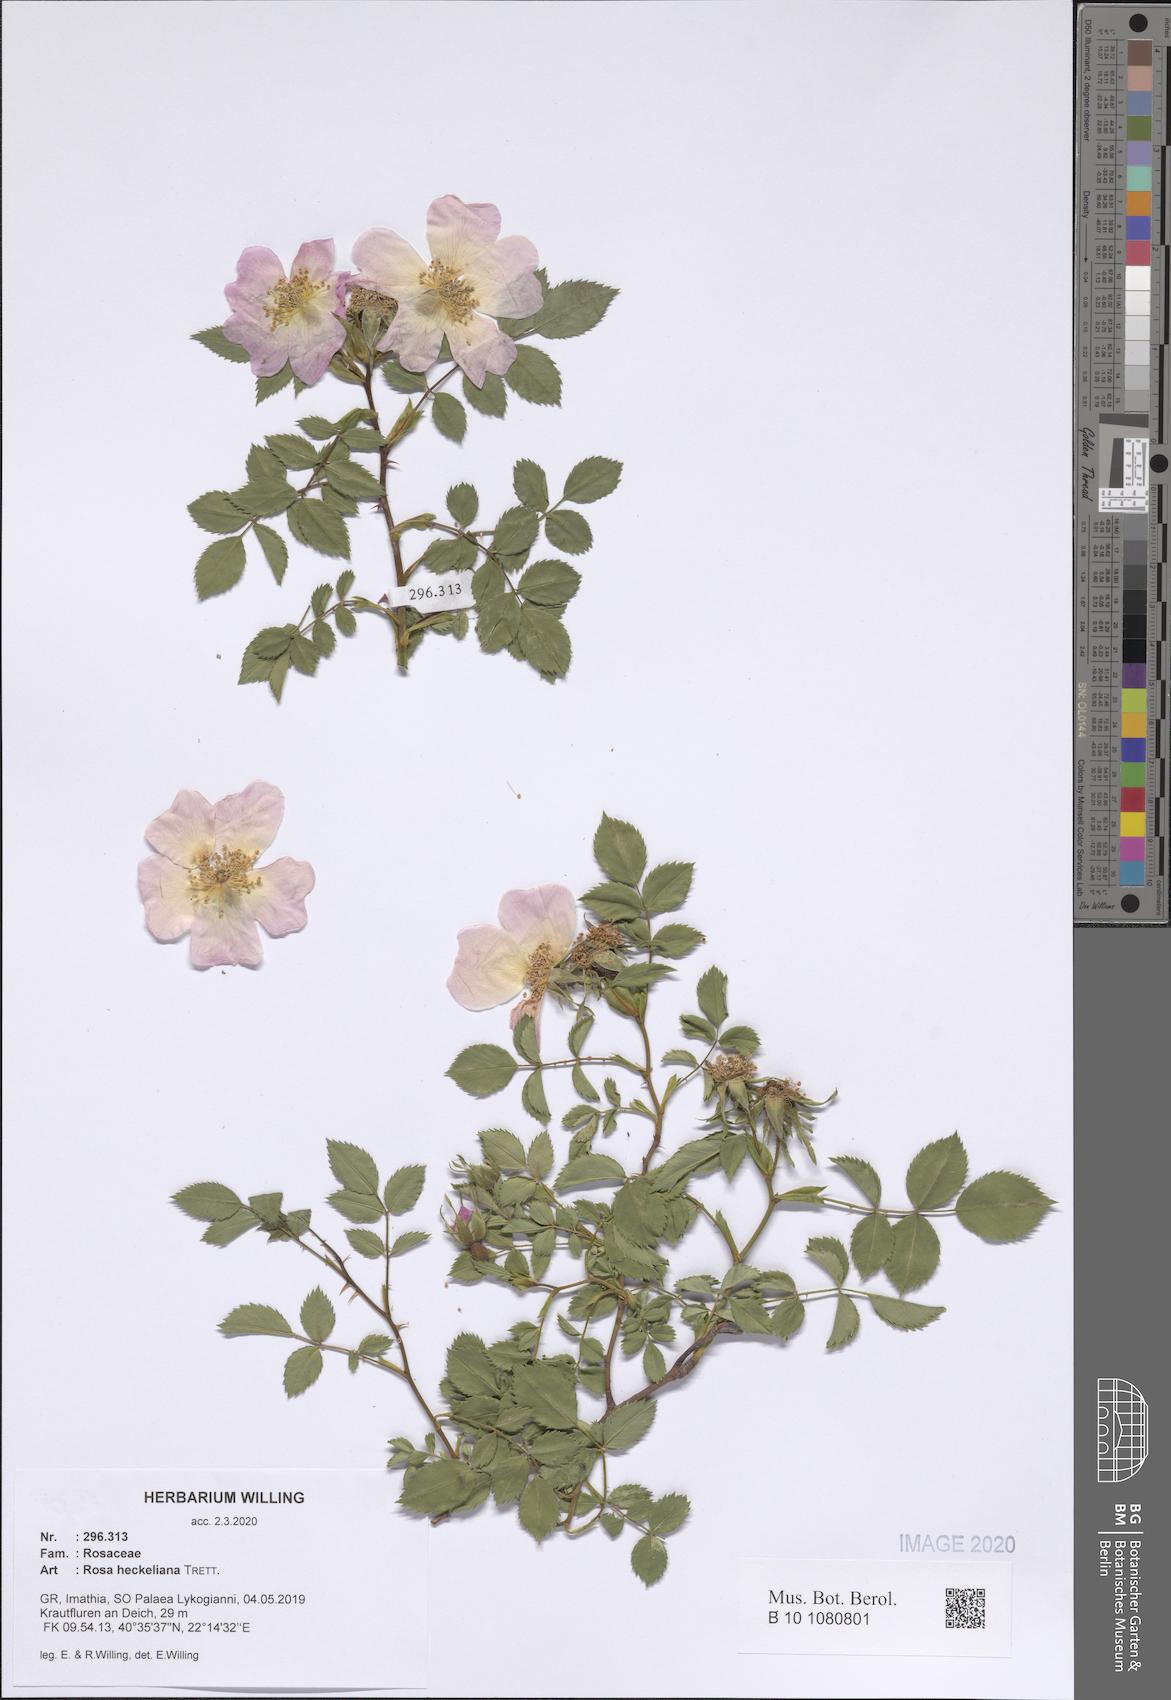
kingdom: Plantae
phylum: Tracheophyta
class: Magnoliopsida
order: Rosales
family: Rosaceae
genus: Rosa
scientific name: Rosa heckeliana
